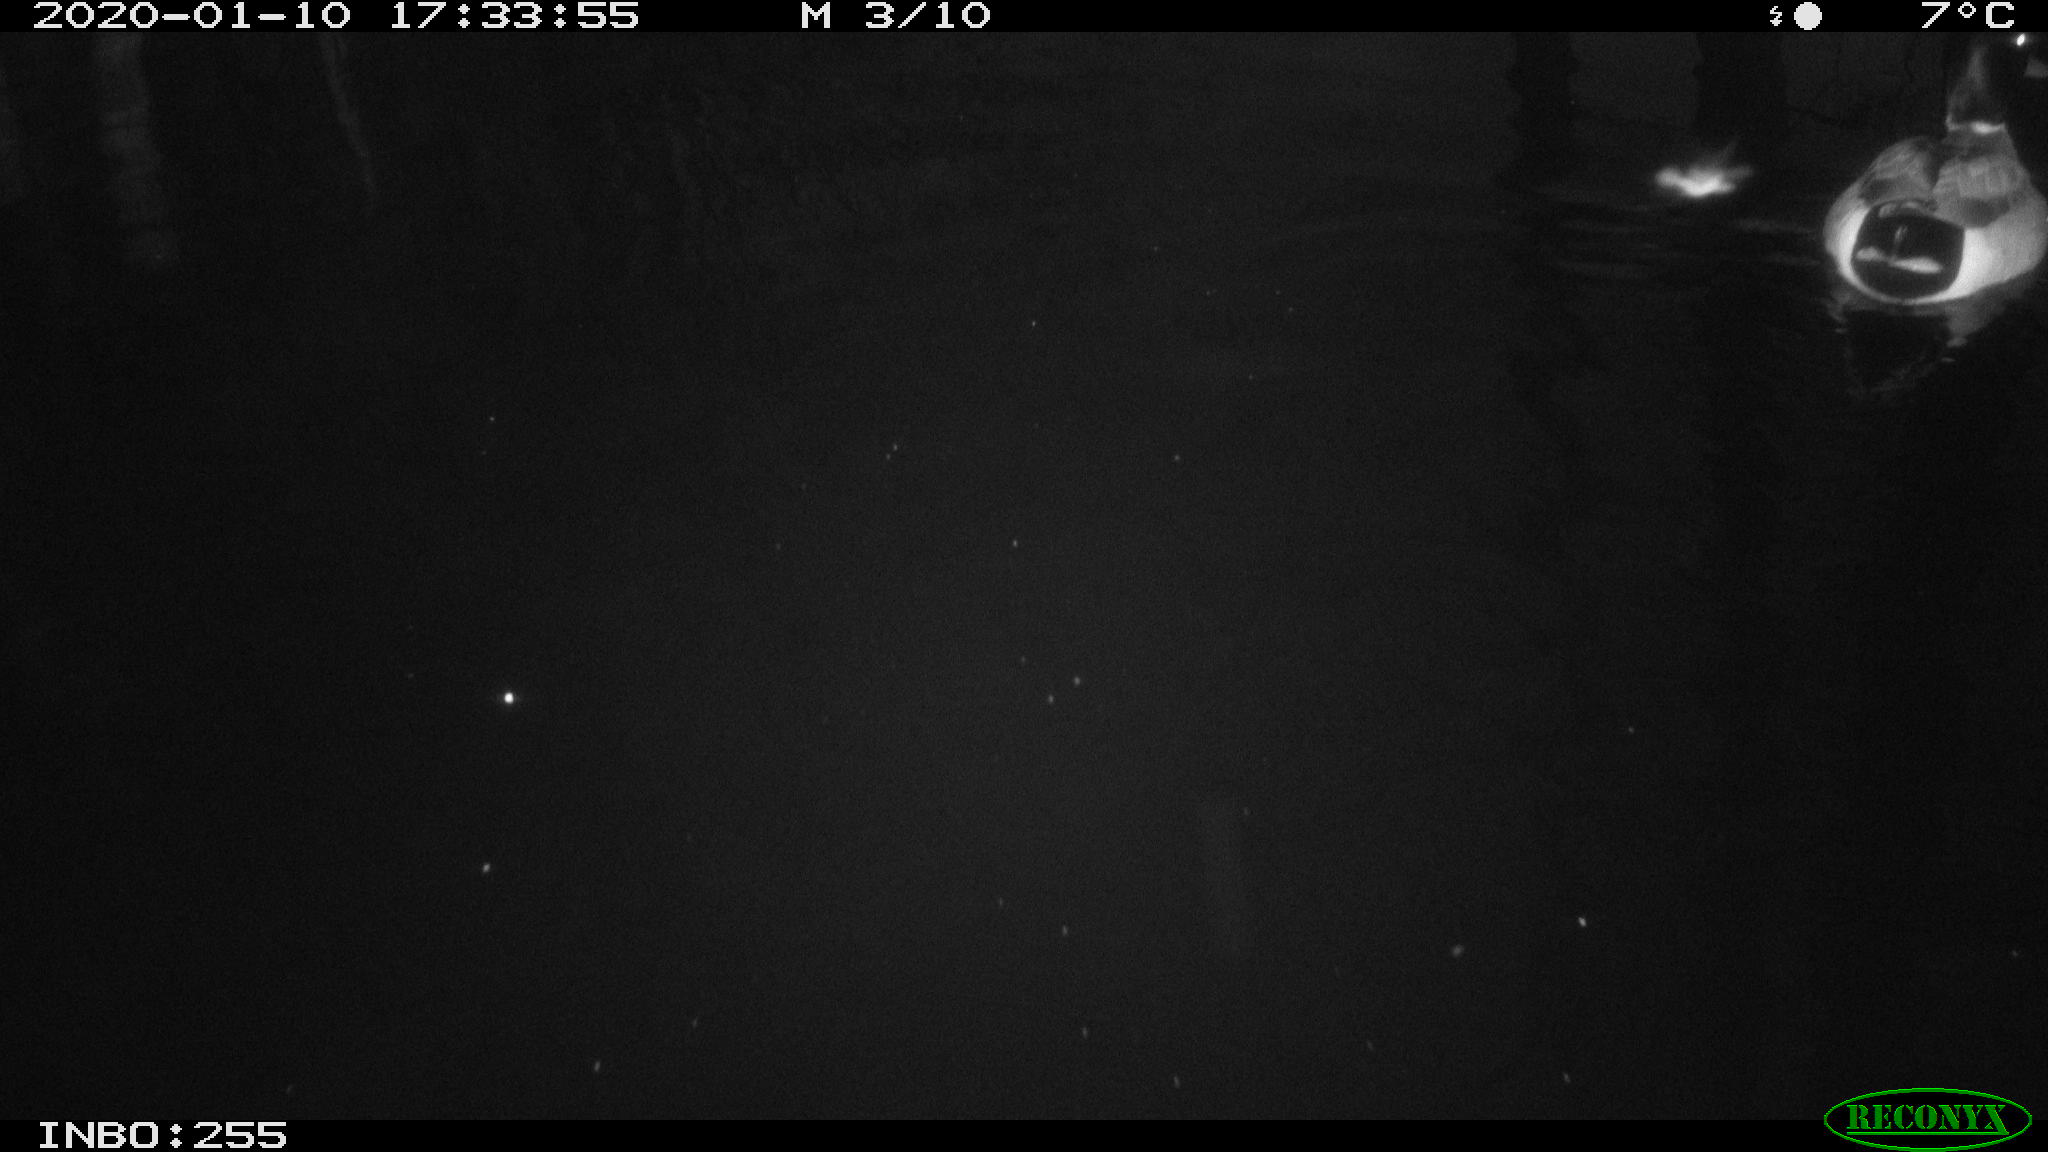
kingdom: Animalia
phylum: Chordata
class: Aves
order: Anseriformes
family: Anatidae
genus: Anas
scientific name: Anas platyrhynchos
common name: Mallard
